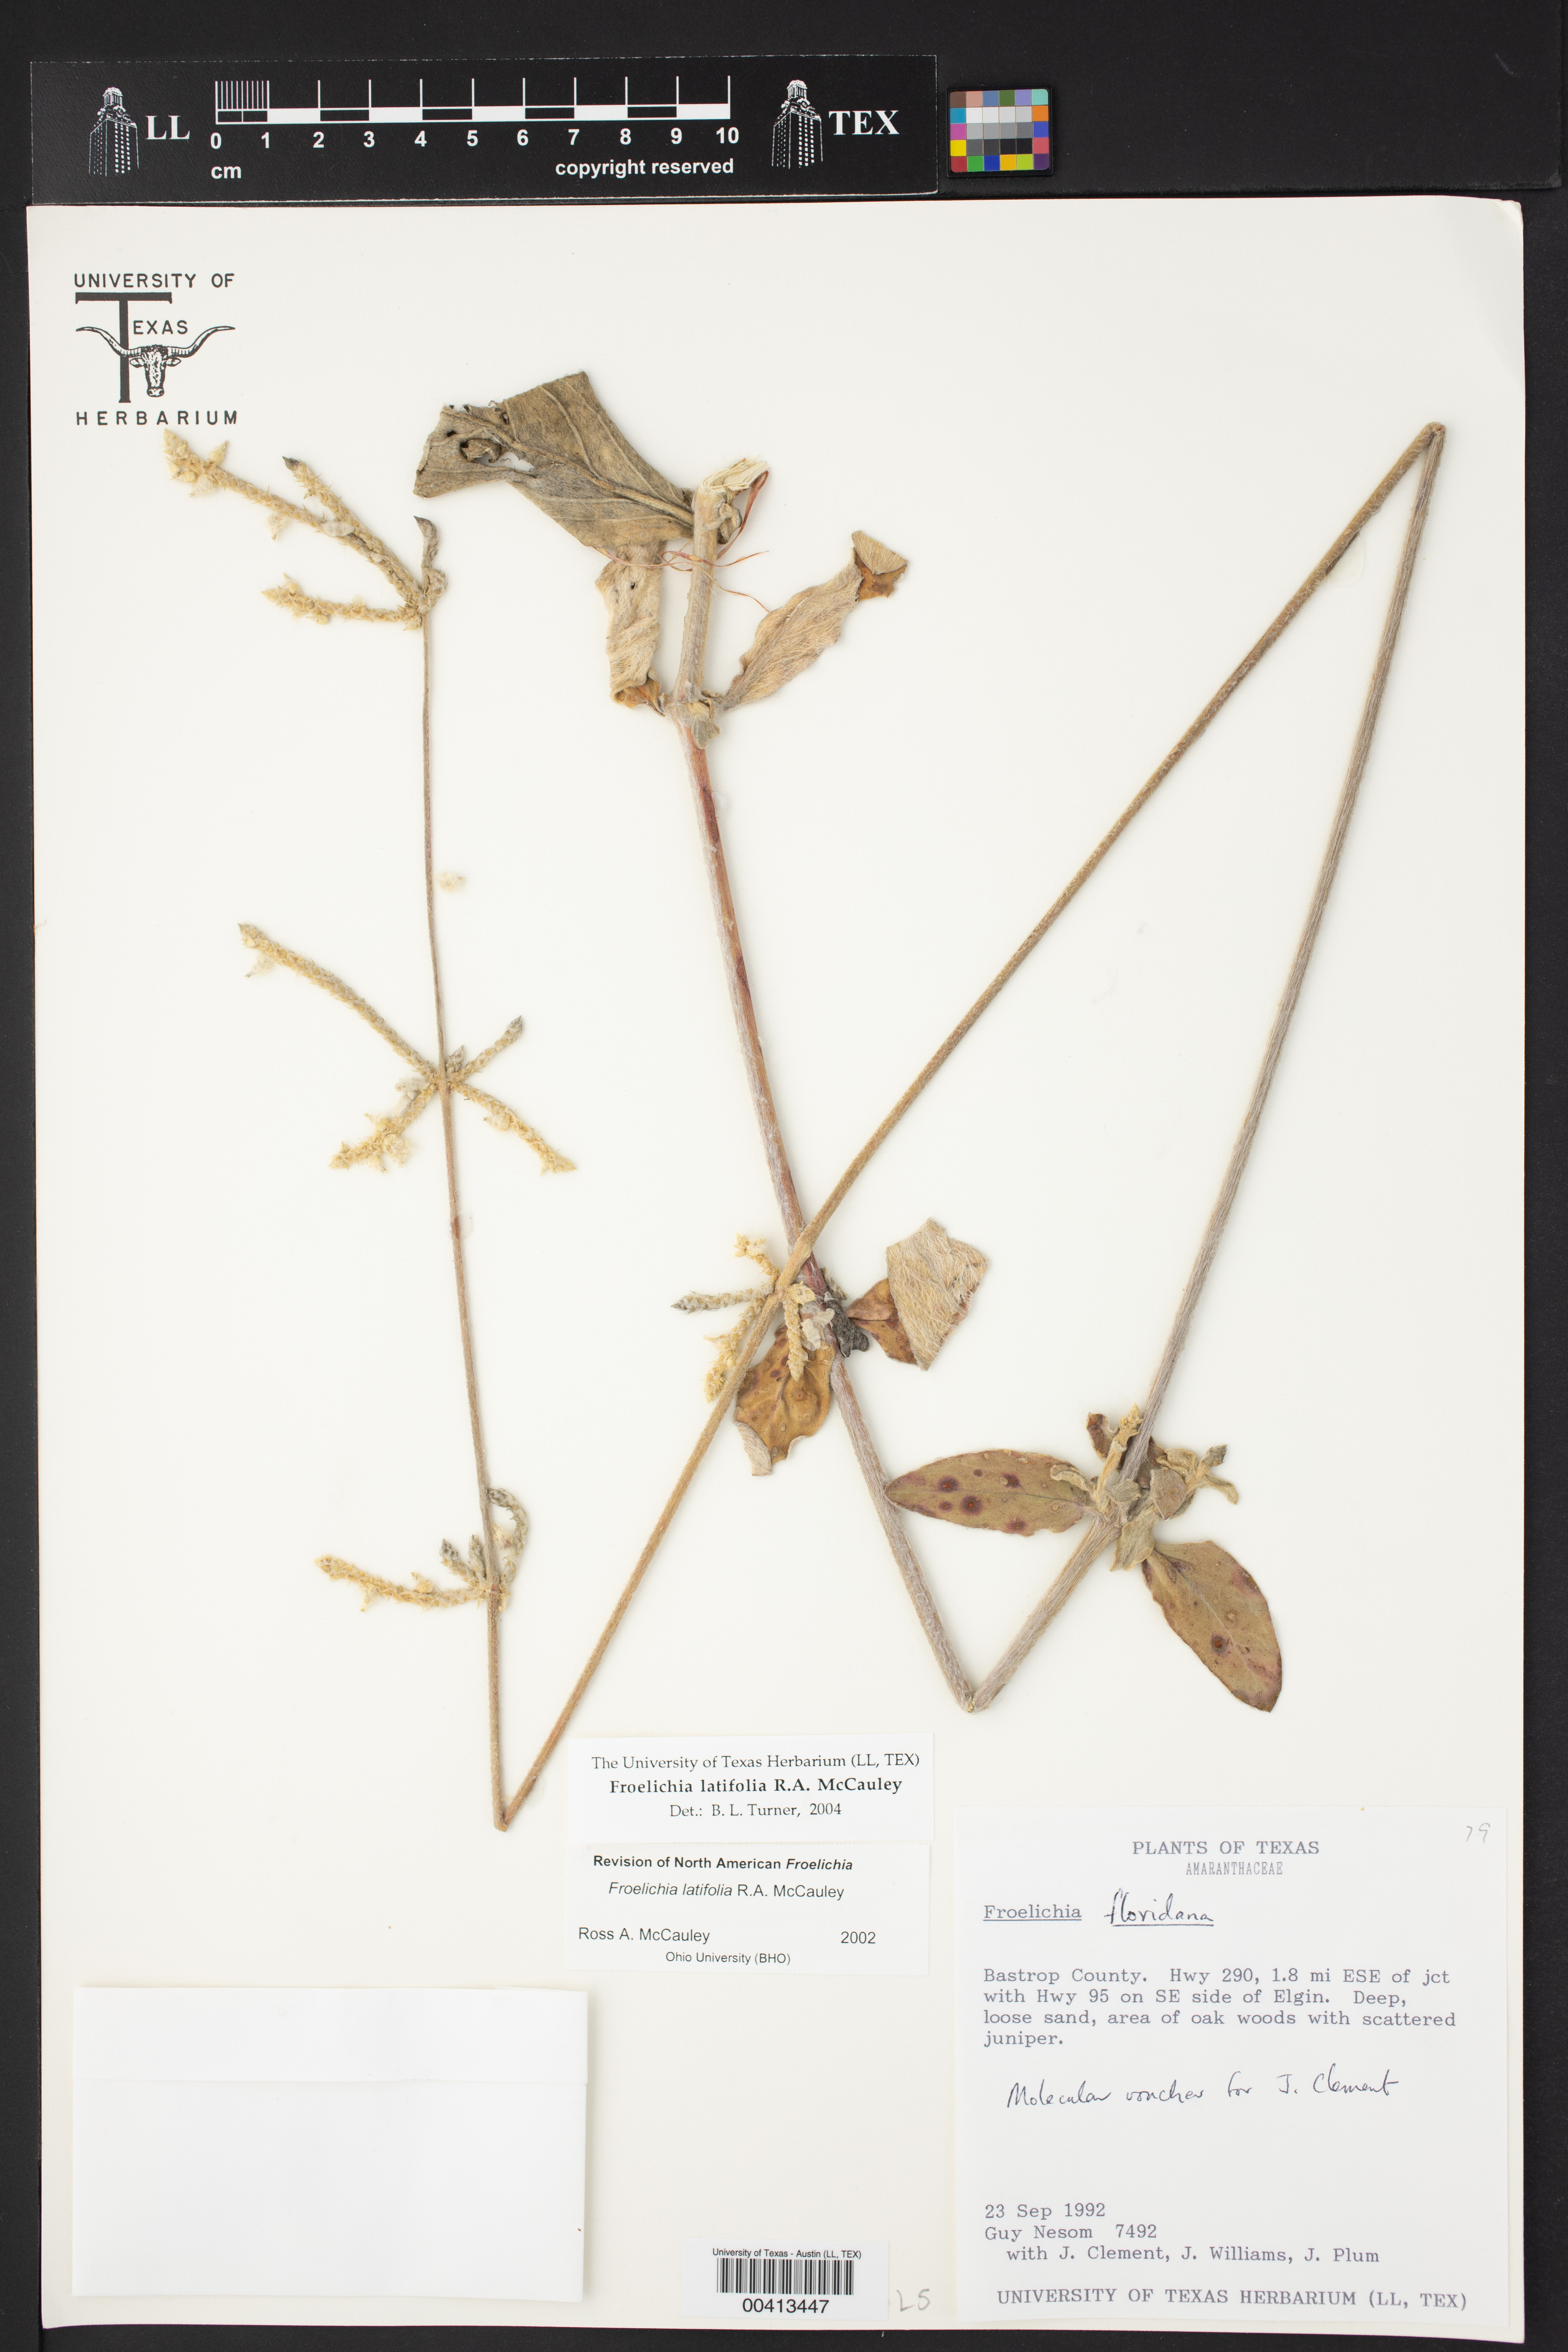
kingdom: Plantae
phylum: Tracheophyta
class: Magnoliopsida
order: Caryophyllales
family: Amaranthaceae
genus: Froelichia
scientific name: Froelichia latifolia
